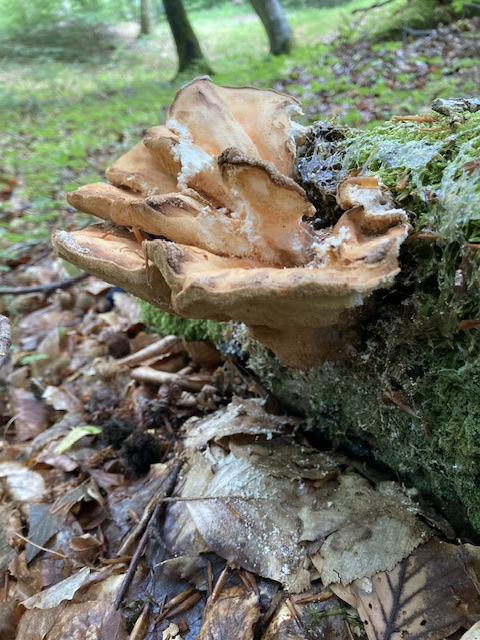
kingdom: Fungi
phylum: Basidiomycota
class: Agaricomycetes
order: Polyporales
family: Laetiporaceae
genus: Laetiporus
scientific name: Laetiporus sulphureus
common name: svovlporesvamp
